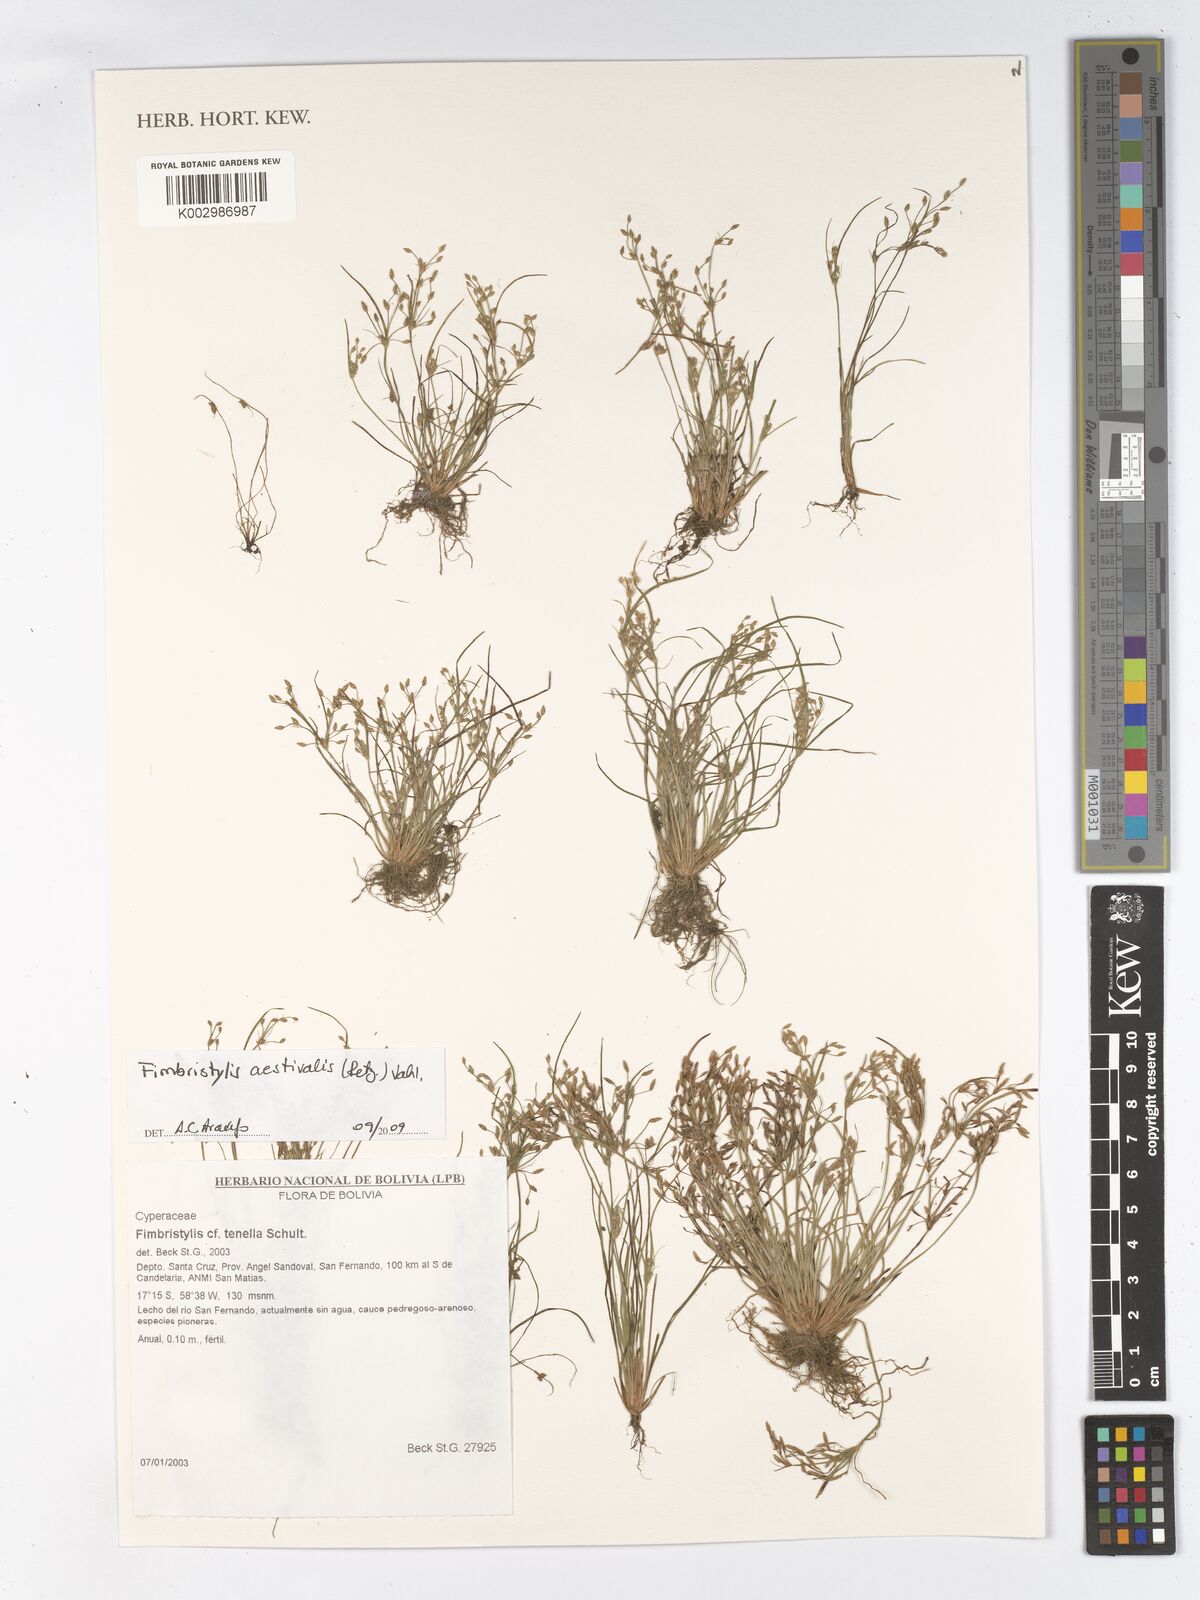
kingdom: Plantae
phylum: Tracheophyta
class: Liliopsida
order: Poales
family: Cyperaceae
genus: Fimbristylis
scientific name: Fimbristylis aestivalis
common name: Summer fimbry
